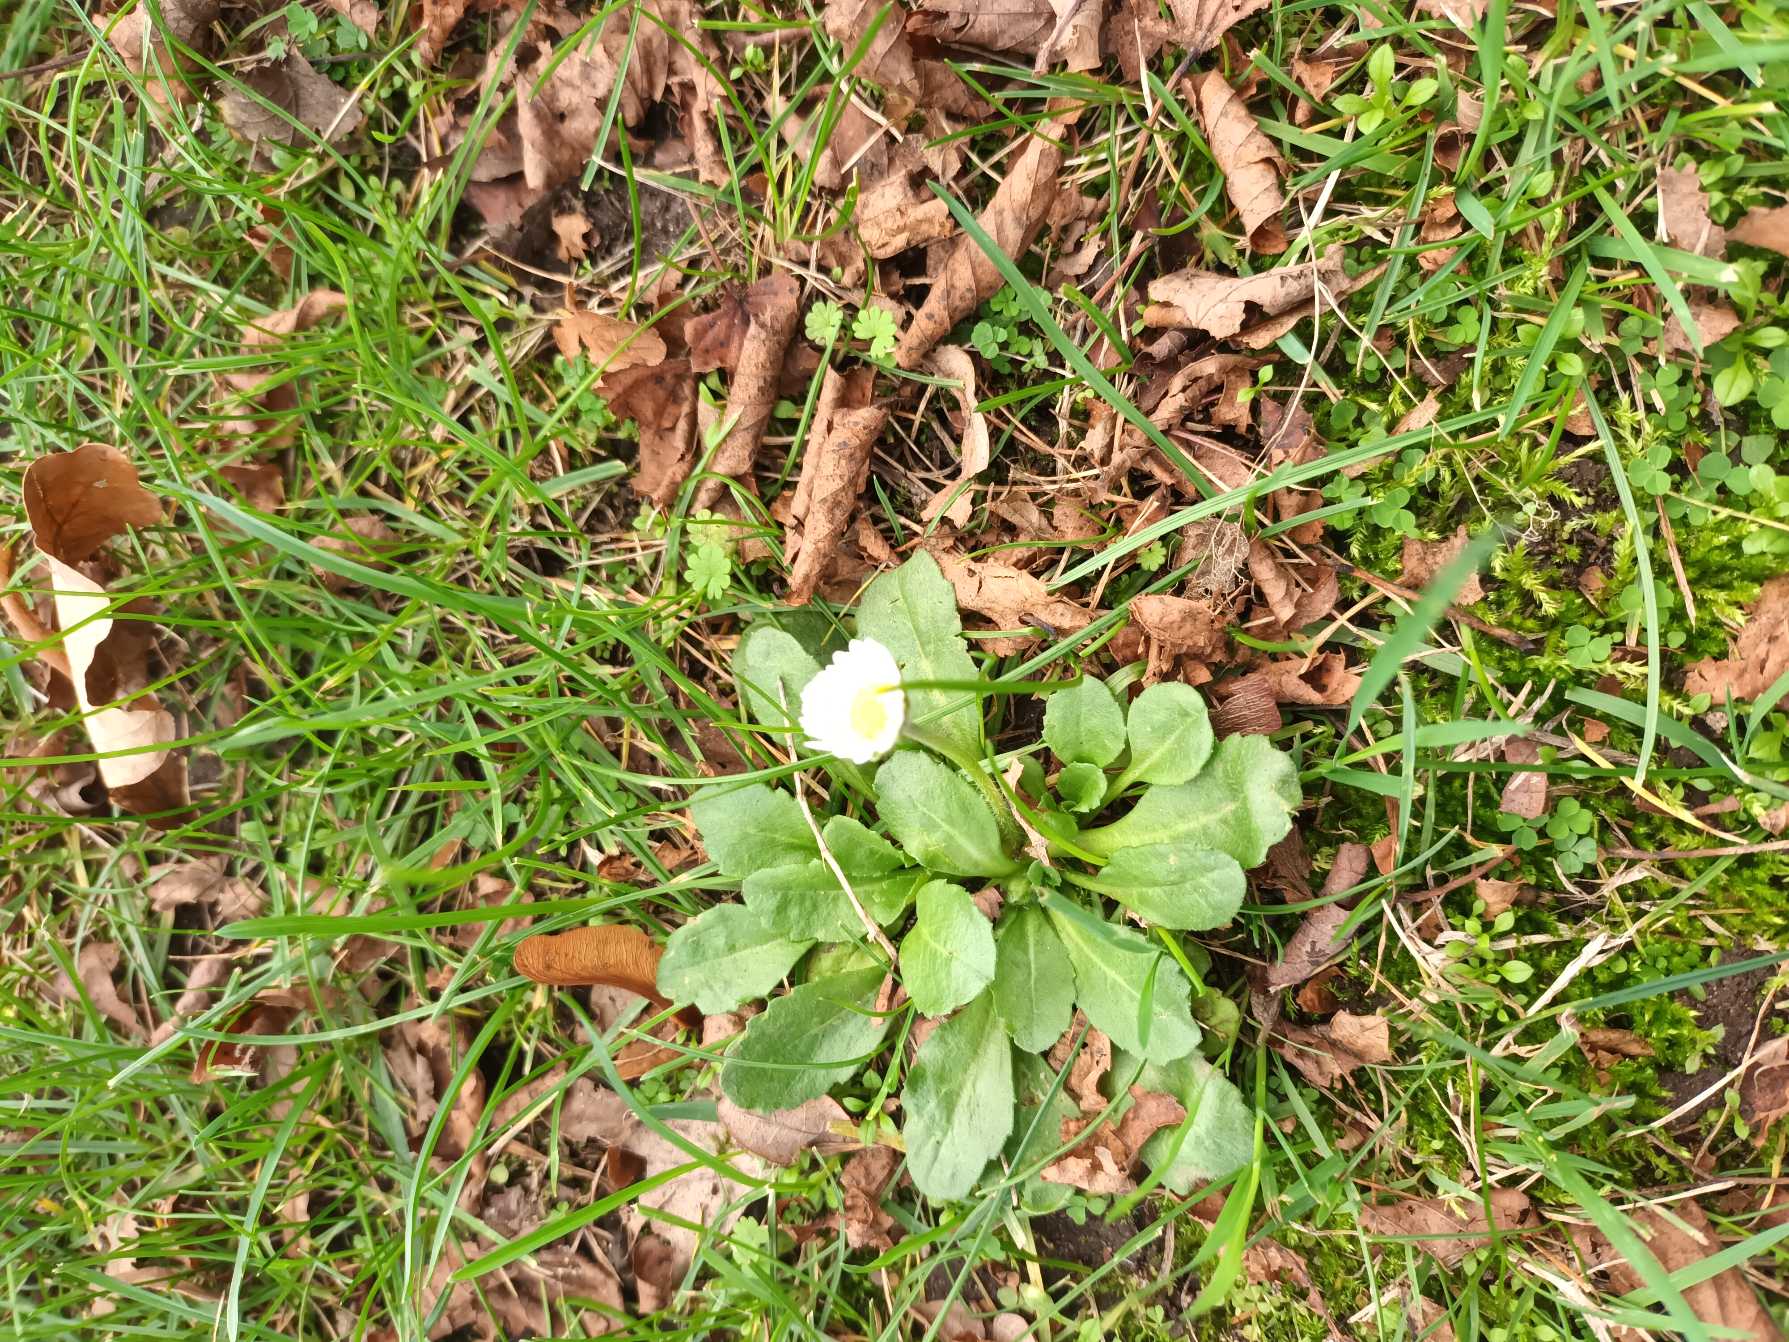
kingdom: Plantae
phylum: Tracheophyta
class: Magnoliopsida
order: Asterales
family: Asteraceae
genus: Bellis
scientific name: Bellis perennis
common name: Tusindfryd
